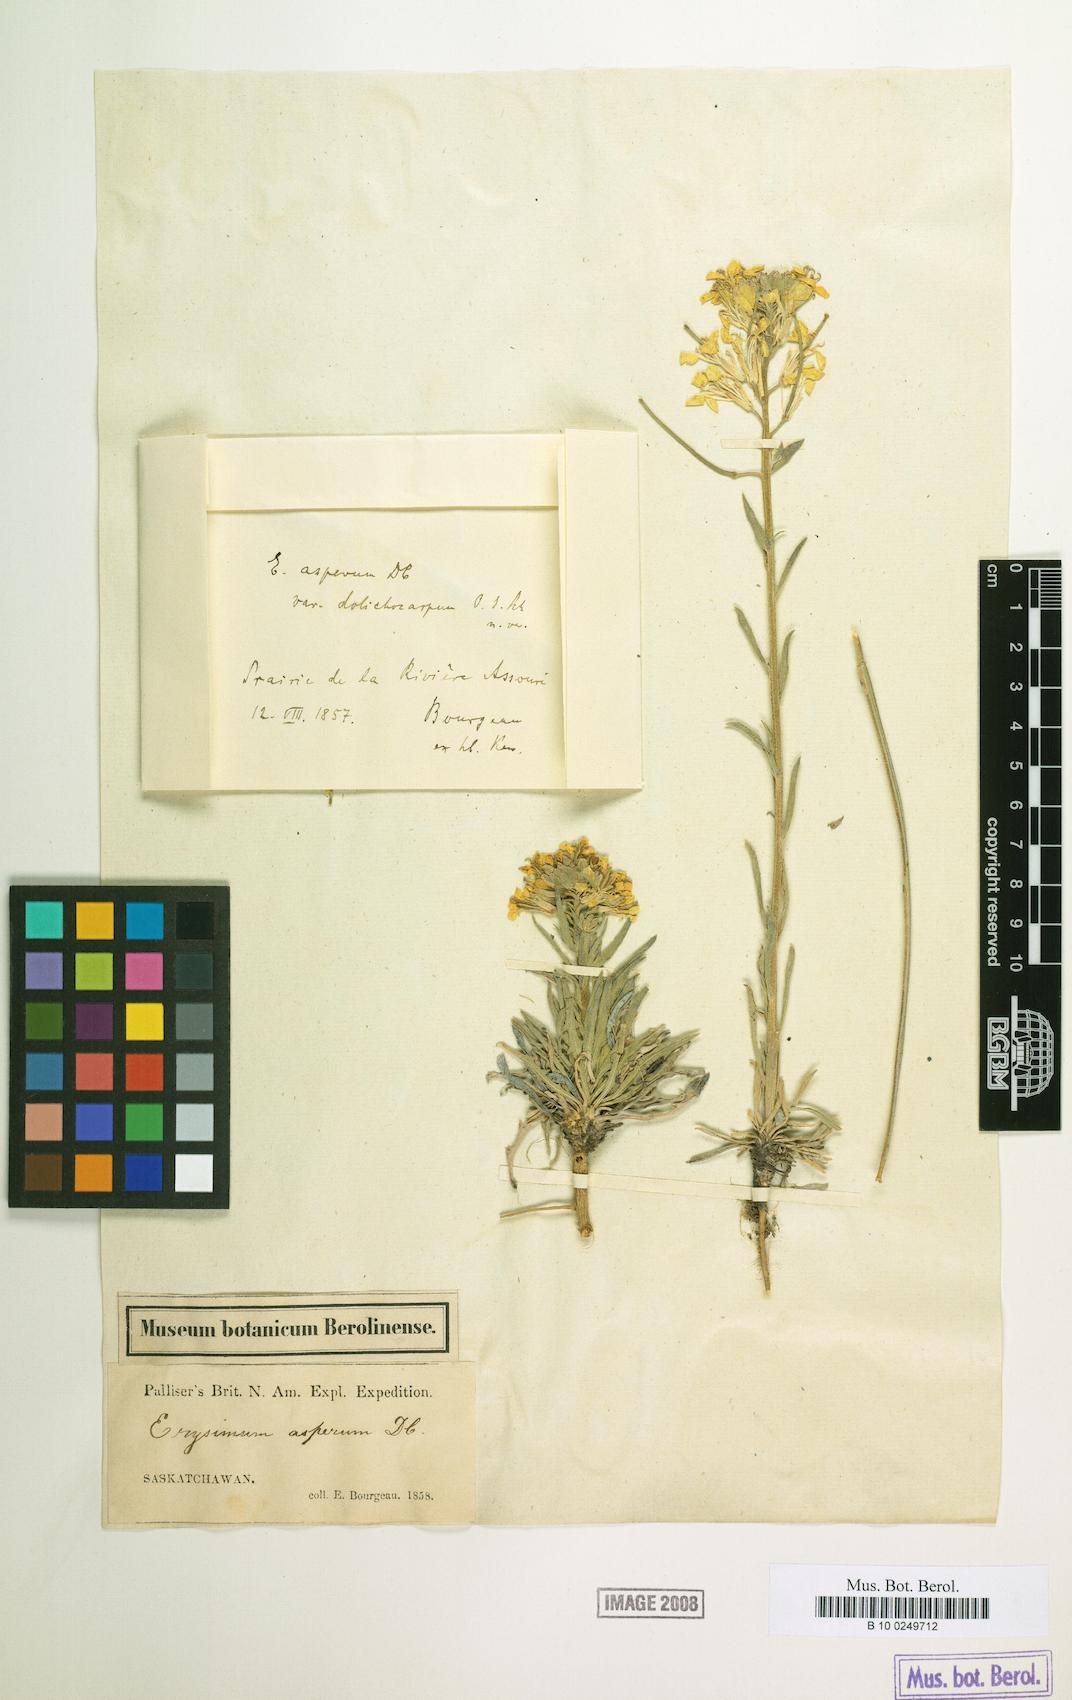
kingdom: Plantae
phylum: Tracheophyta
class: Magnoliopsida
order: Brassicales
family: Brassicaceae
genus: Erysimum
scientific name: Erysimum canadense
